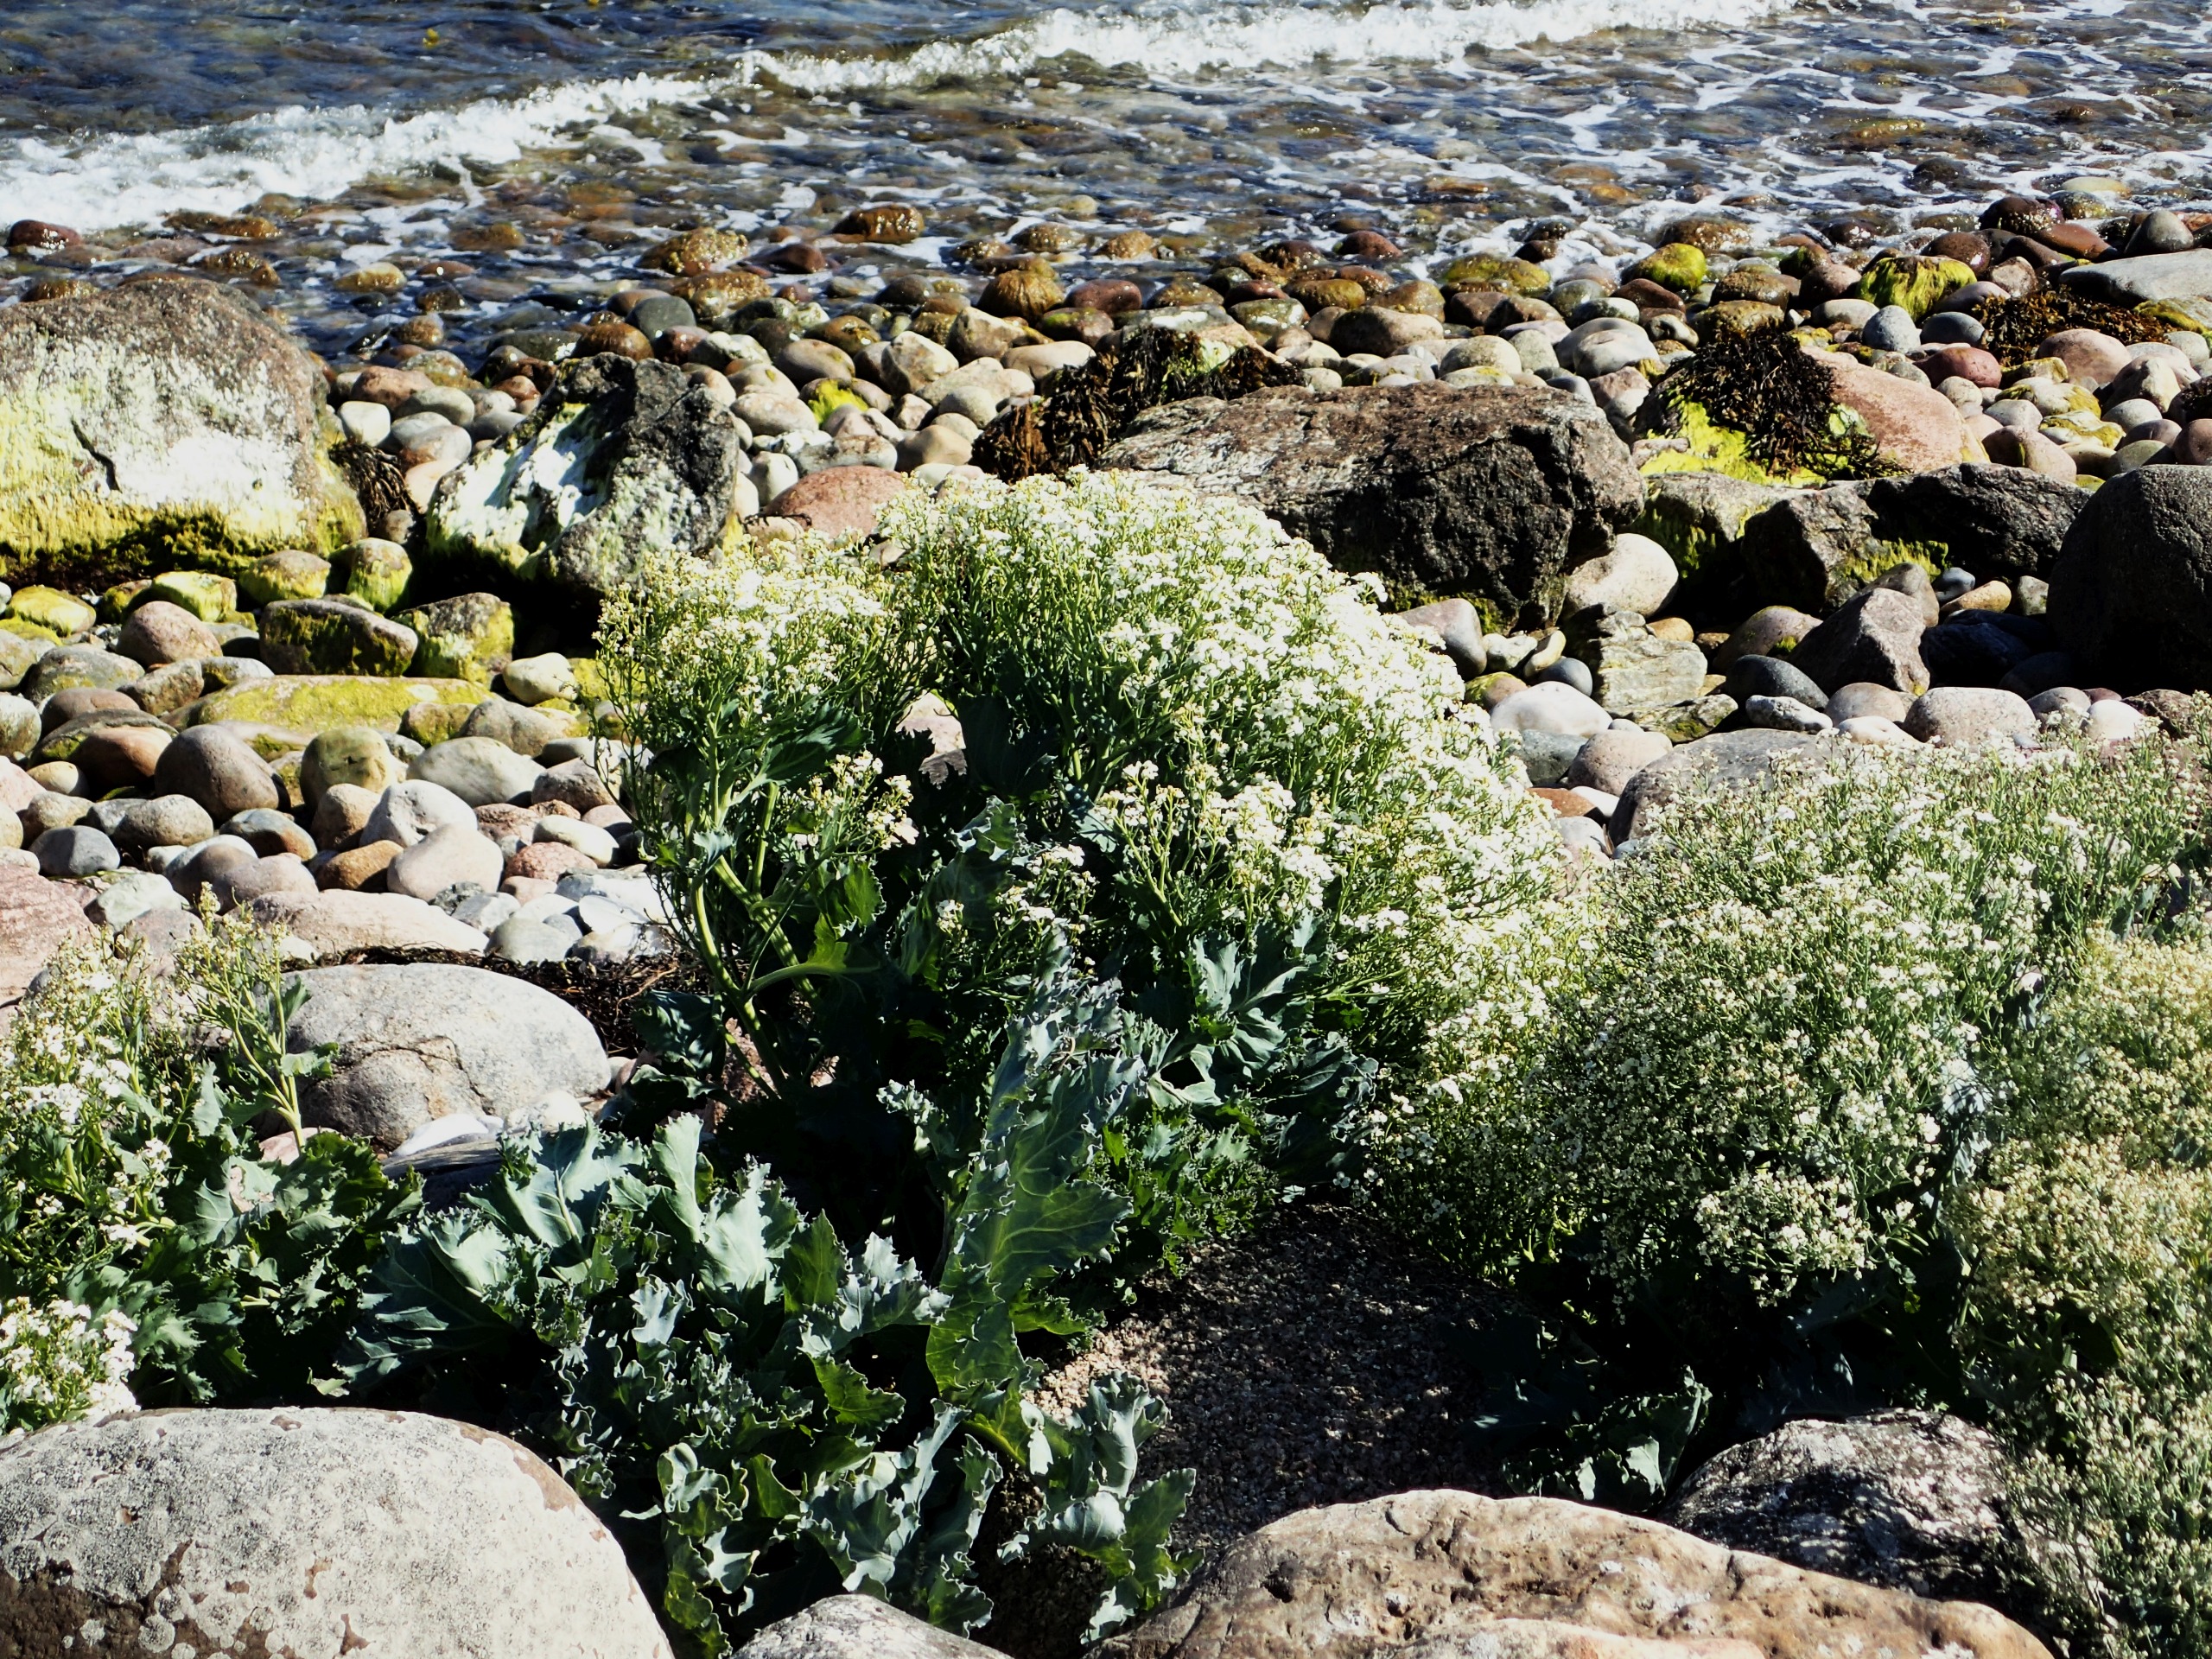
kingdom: Plantae
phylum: Tracheophyta
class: Magnoliopsida
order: Brassicales
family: Brassicaceae
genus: Crambe
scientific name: Crambe maritima
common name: Strandkål
